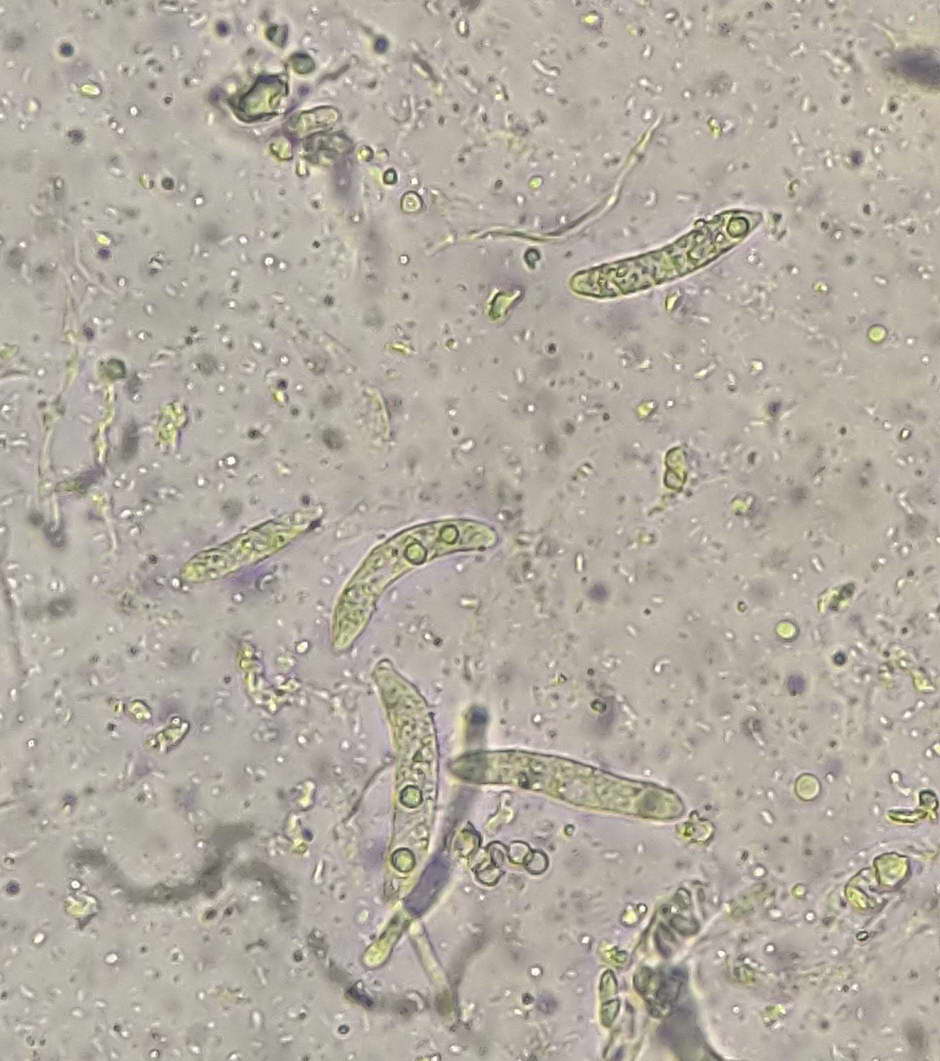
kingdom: Fungi
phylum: Basidiomycota
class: Pucciniomycetes
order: Platygloeales
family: Platygloeaceae
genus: Platygloea
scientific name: Platygloea disciformis
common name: linde-slimklat
